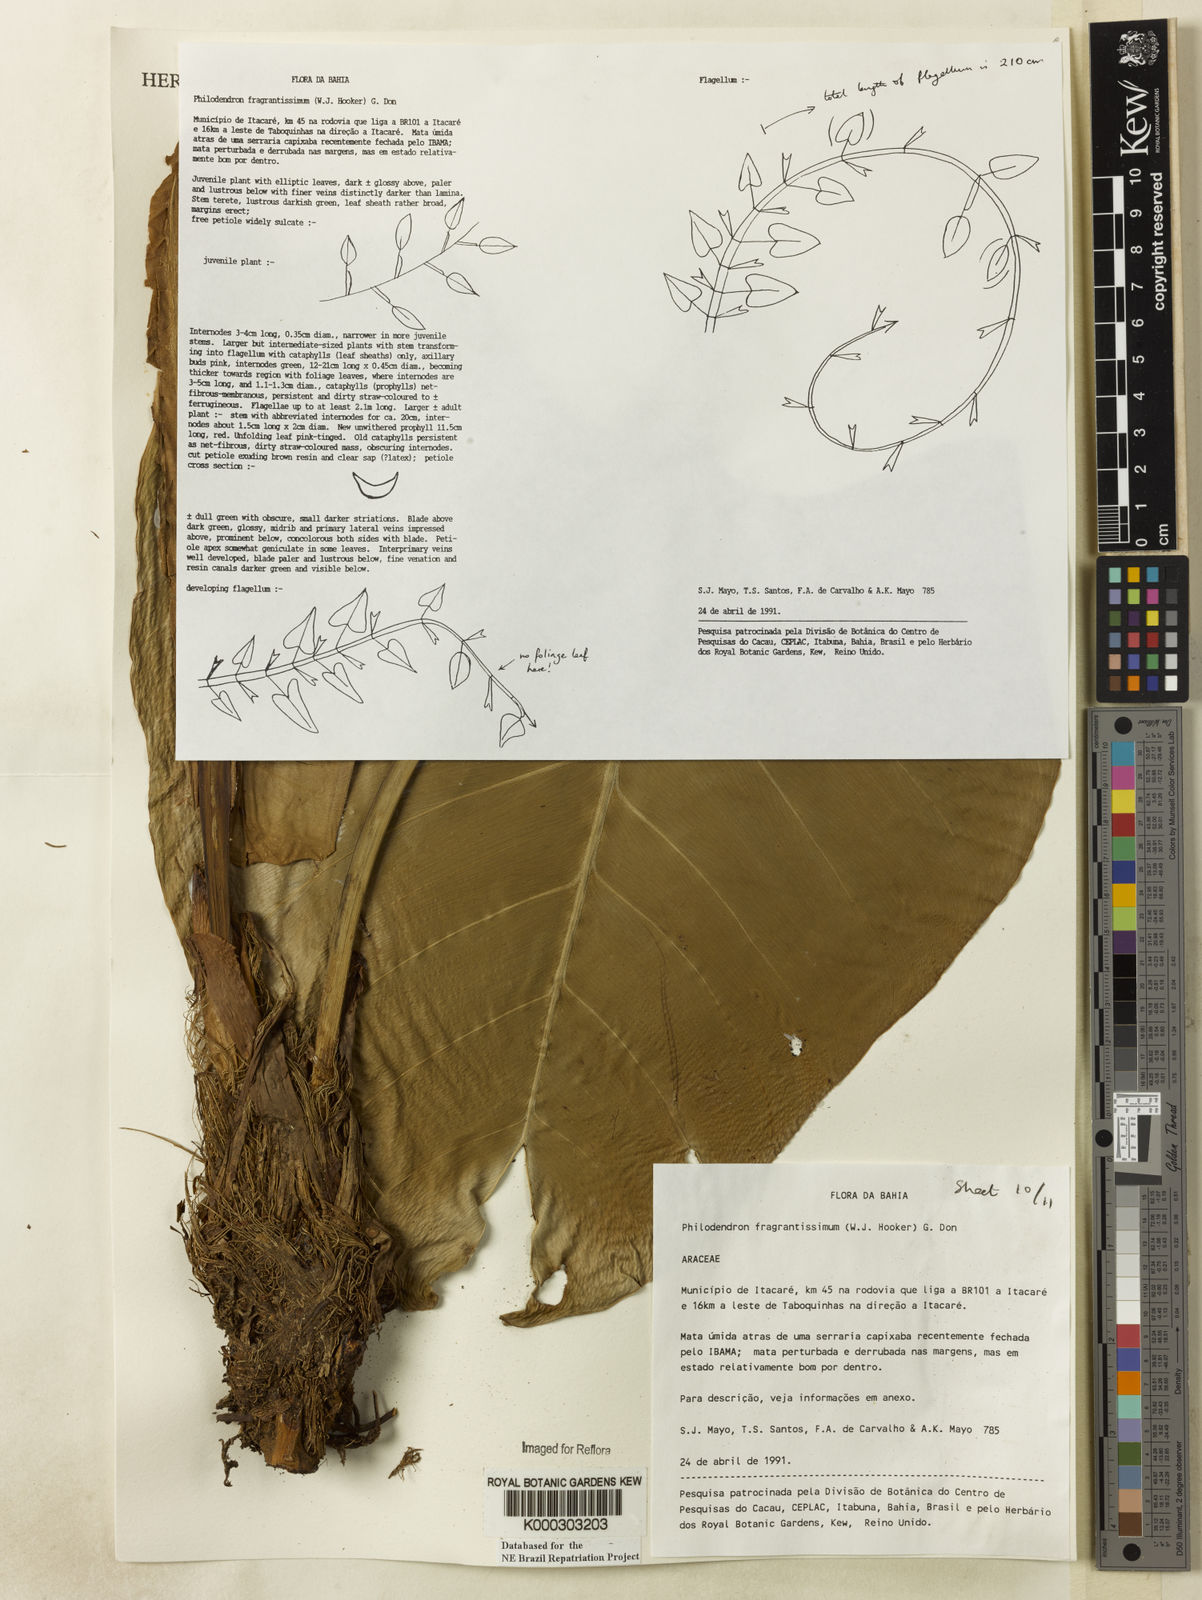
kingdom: Plantae
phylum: Tracheophyta
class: Liliopsida
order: Alismatales
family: Araceae
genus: Philodendron
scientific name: Philodendron fragrantissimum
